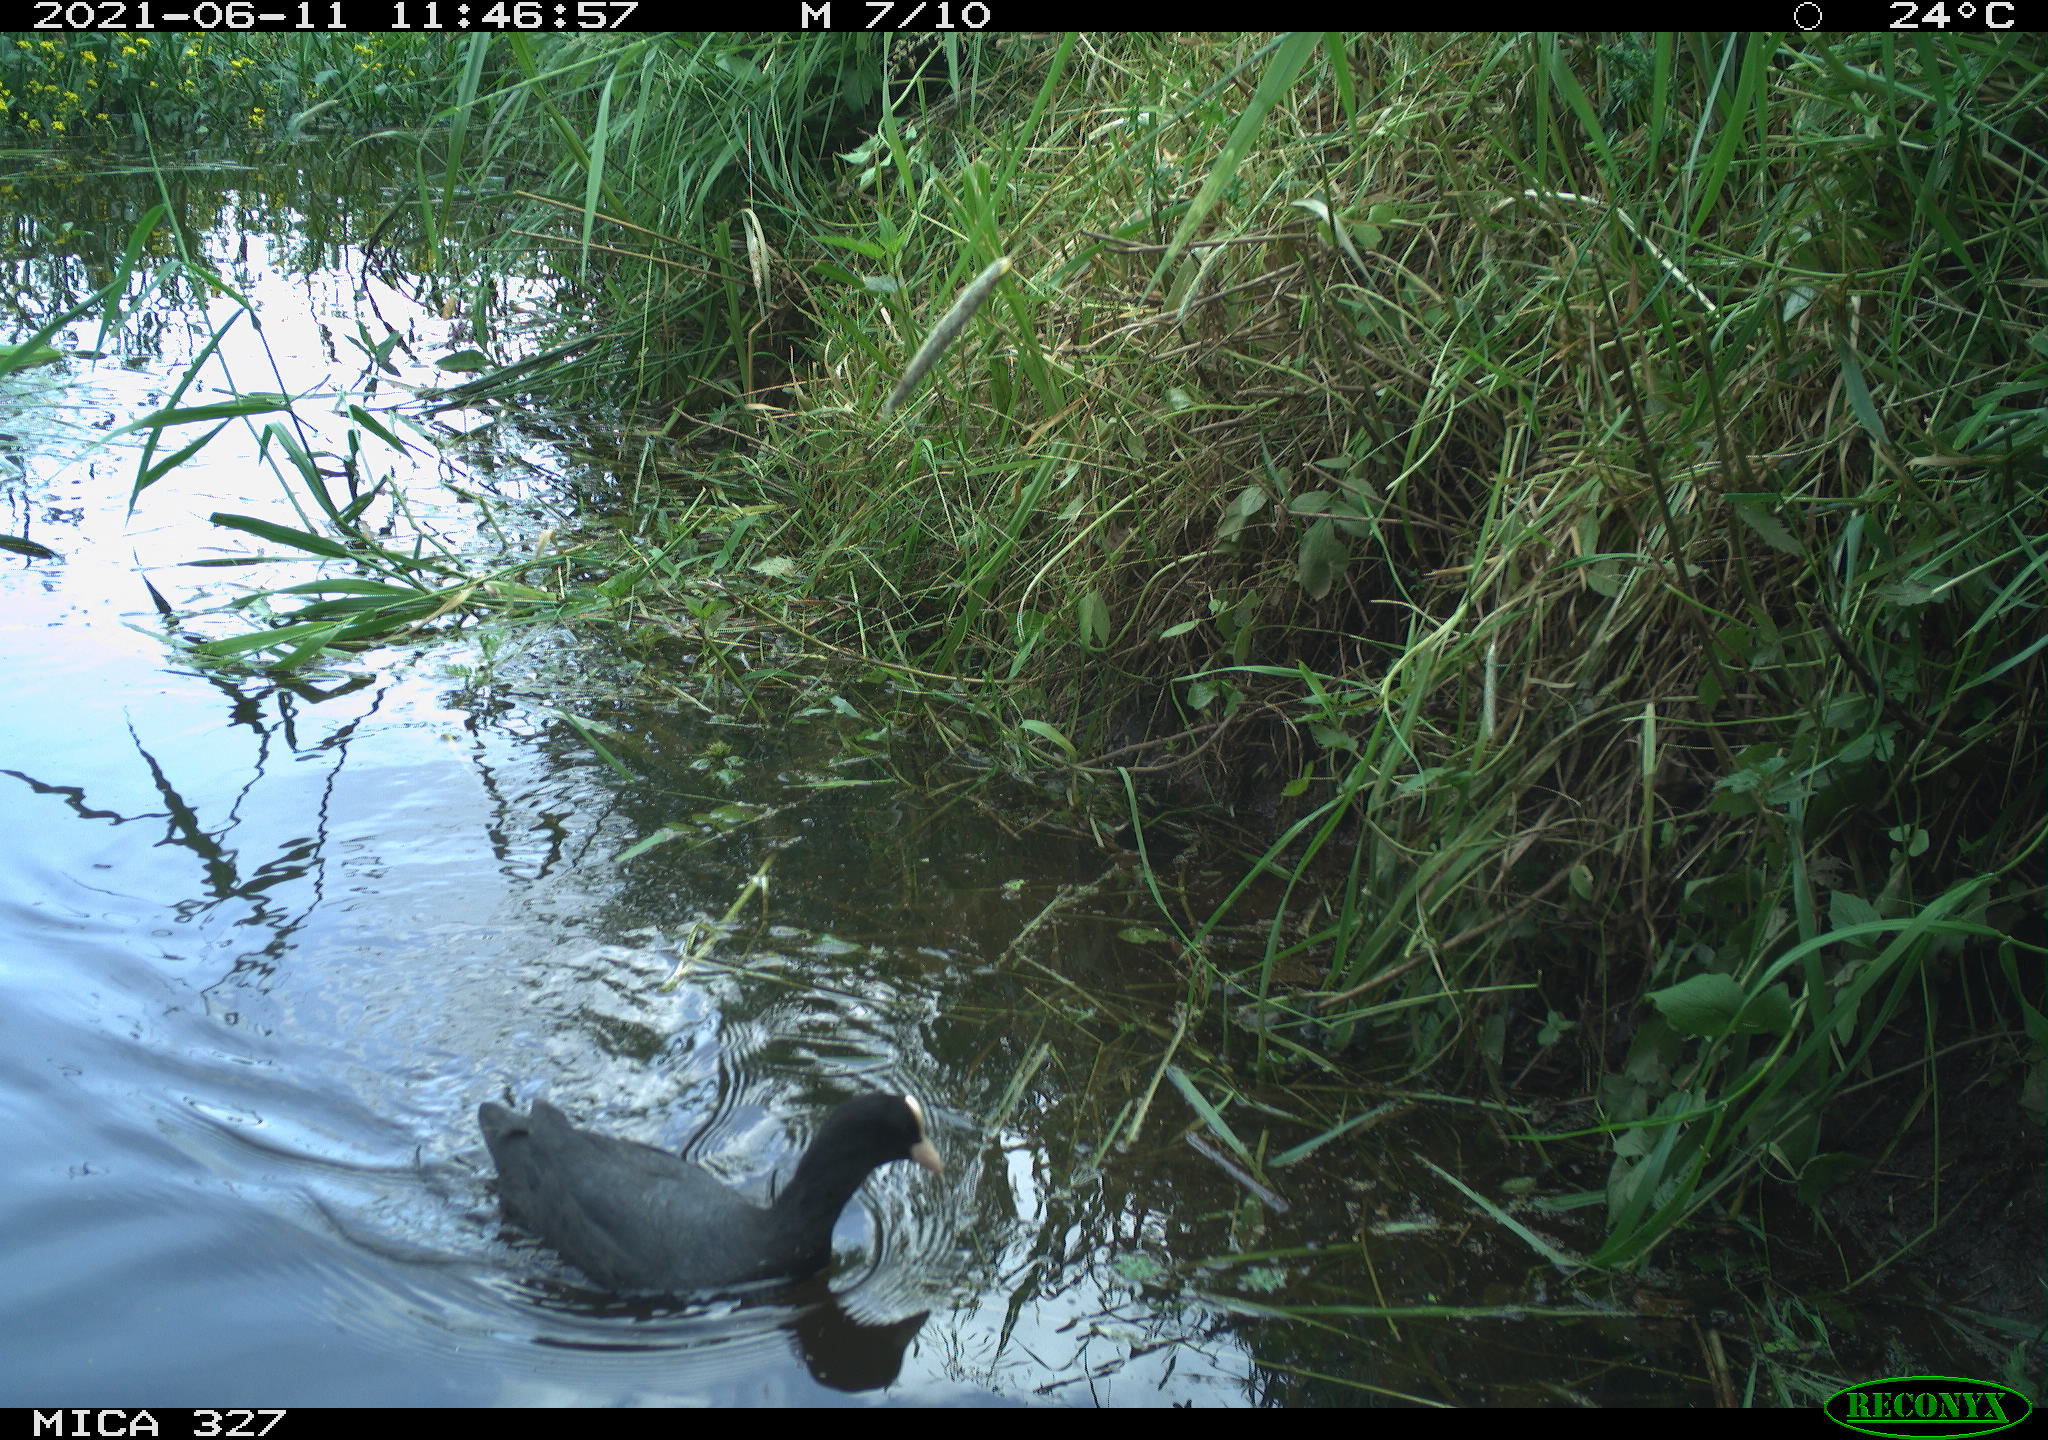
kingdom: Animalia
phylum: Chordata
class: Aves
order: Gruiformes
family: Rallidae
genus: Fulica
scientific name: Fulica atra
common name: Eurasian coot
